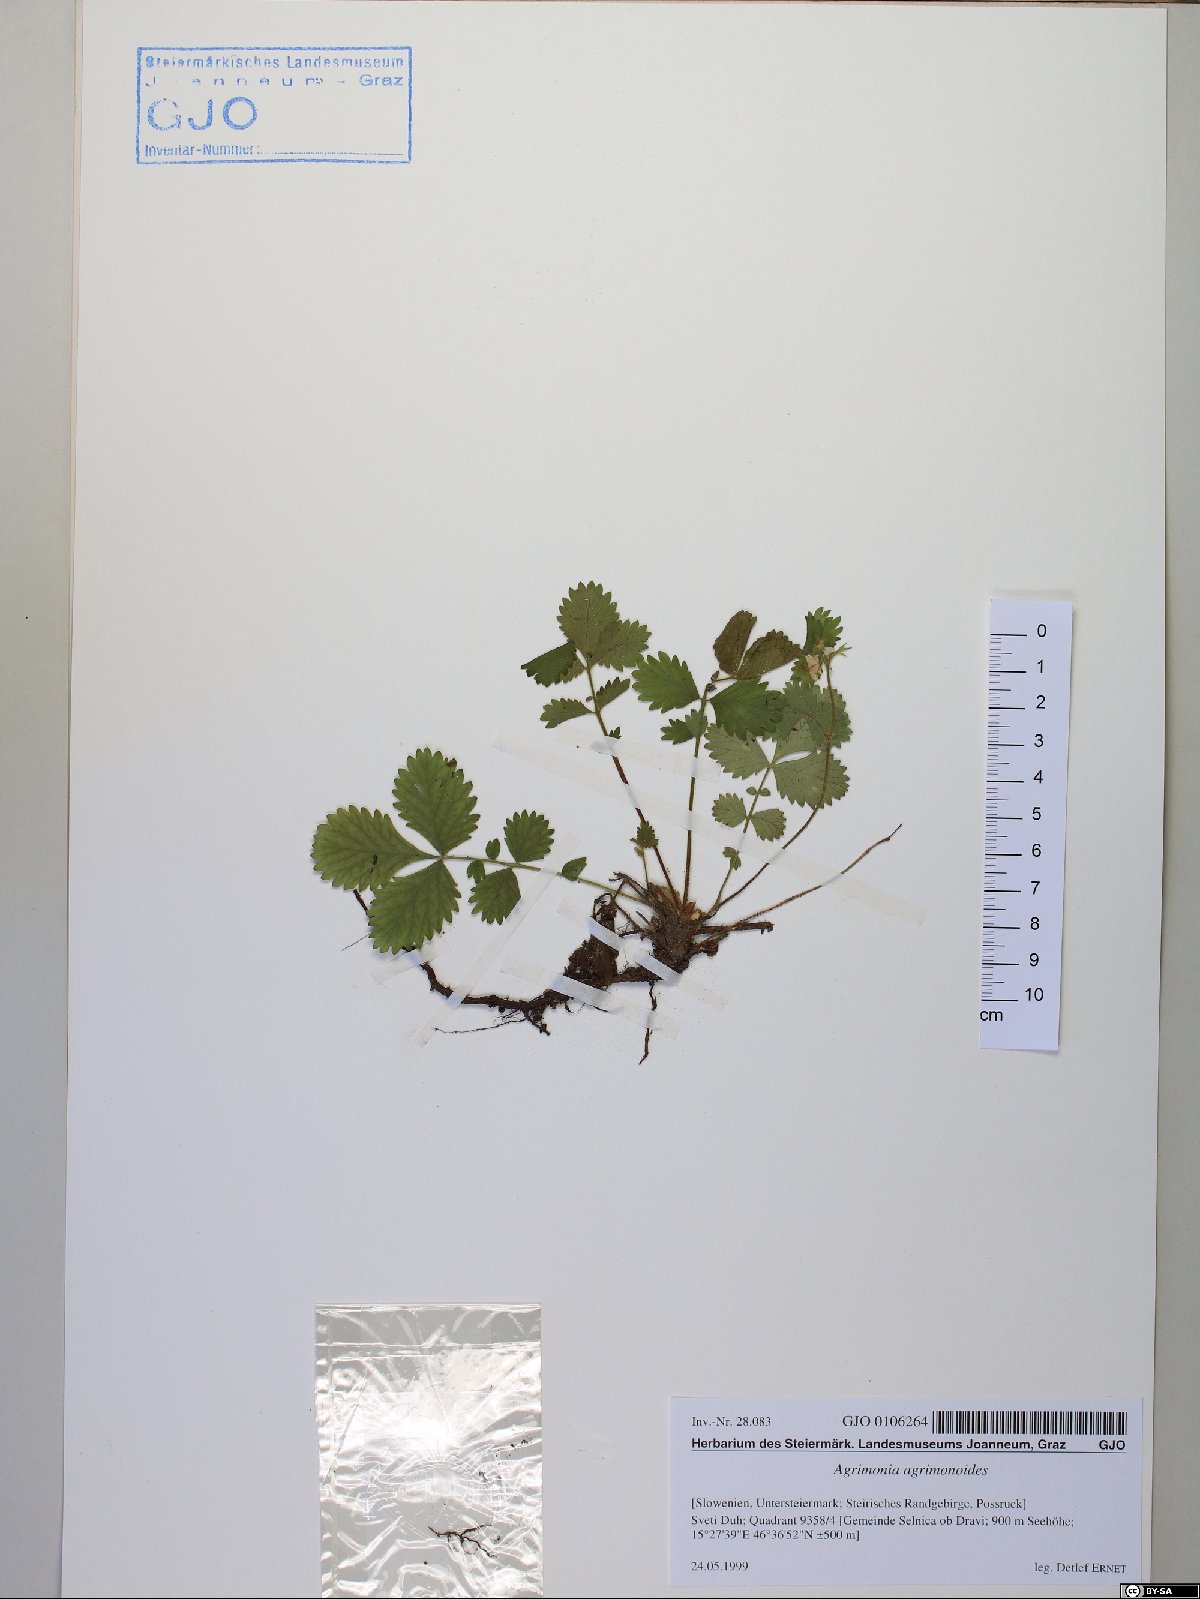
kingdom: Plantae
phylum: Tracheophyta
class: Magnoliopsida
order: Rosales
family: Rosaceae
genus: Aremonia
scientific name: Aremonia agrimonoides
